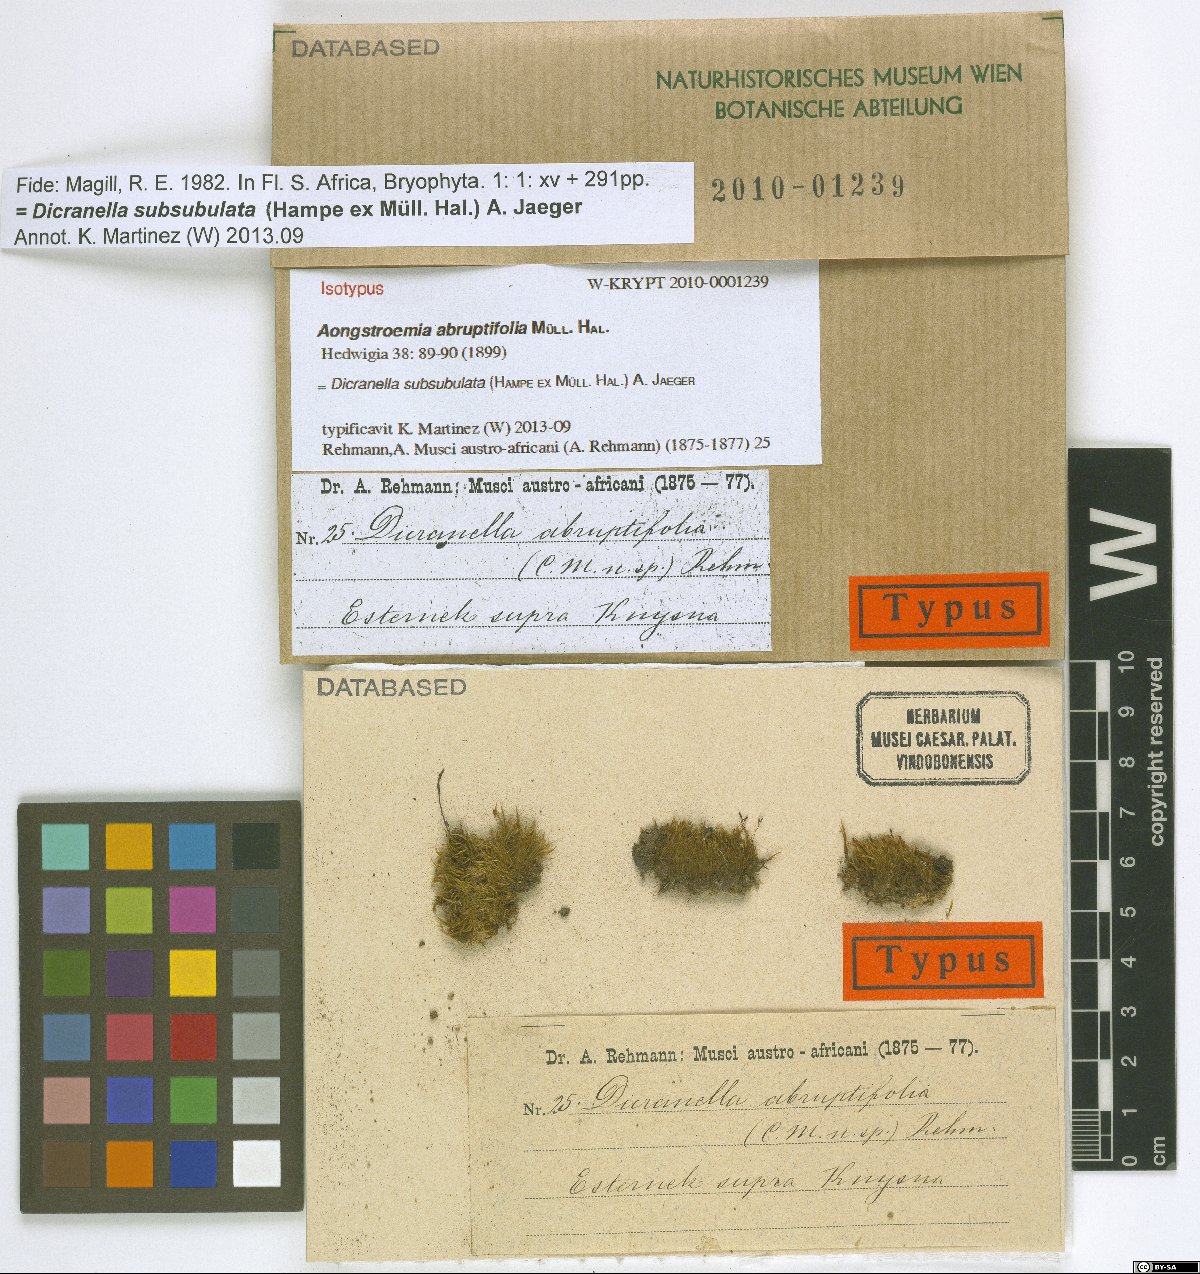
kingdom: Plantae
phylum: Bryophyta
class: Bryopsida
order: Dicranales
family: Dicranellaceae
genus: Dicranella
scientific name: Dicranella subsubulata
